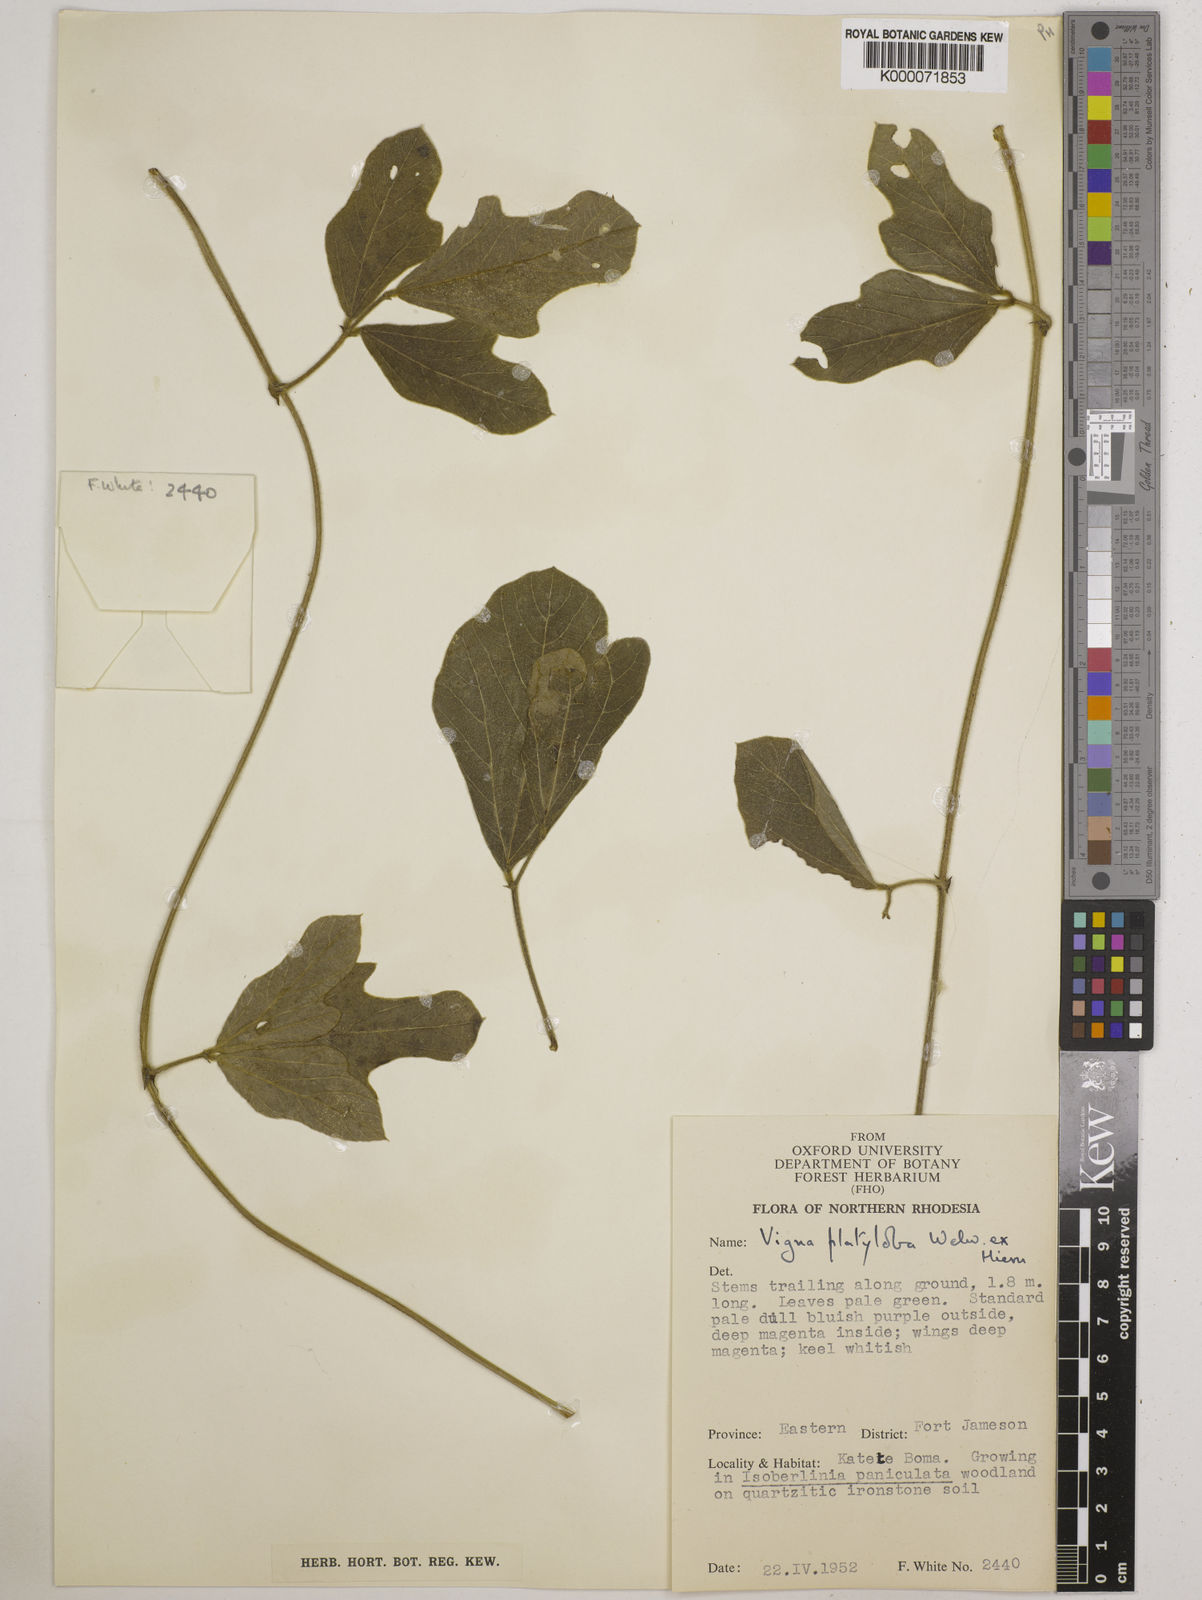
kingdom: Plantae
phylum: Tracheophyta
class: Magnoliopsida
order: Fabales
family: Fabaceae
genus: Vigna
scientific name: Vigna platyloba
